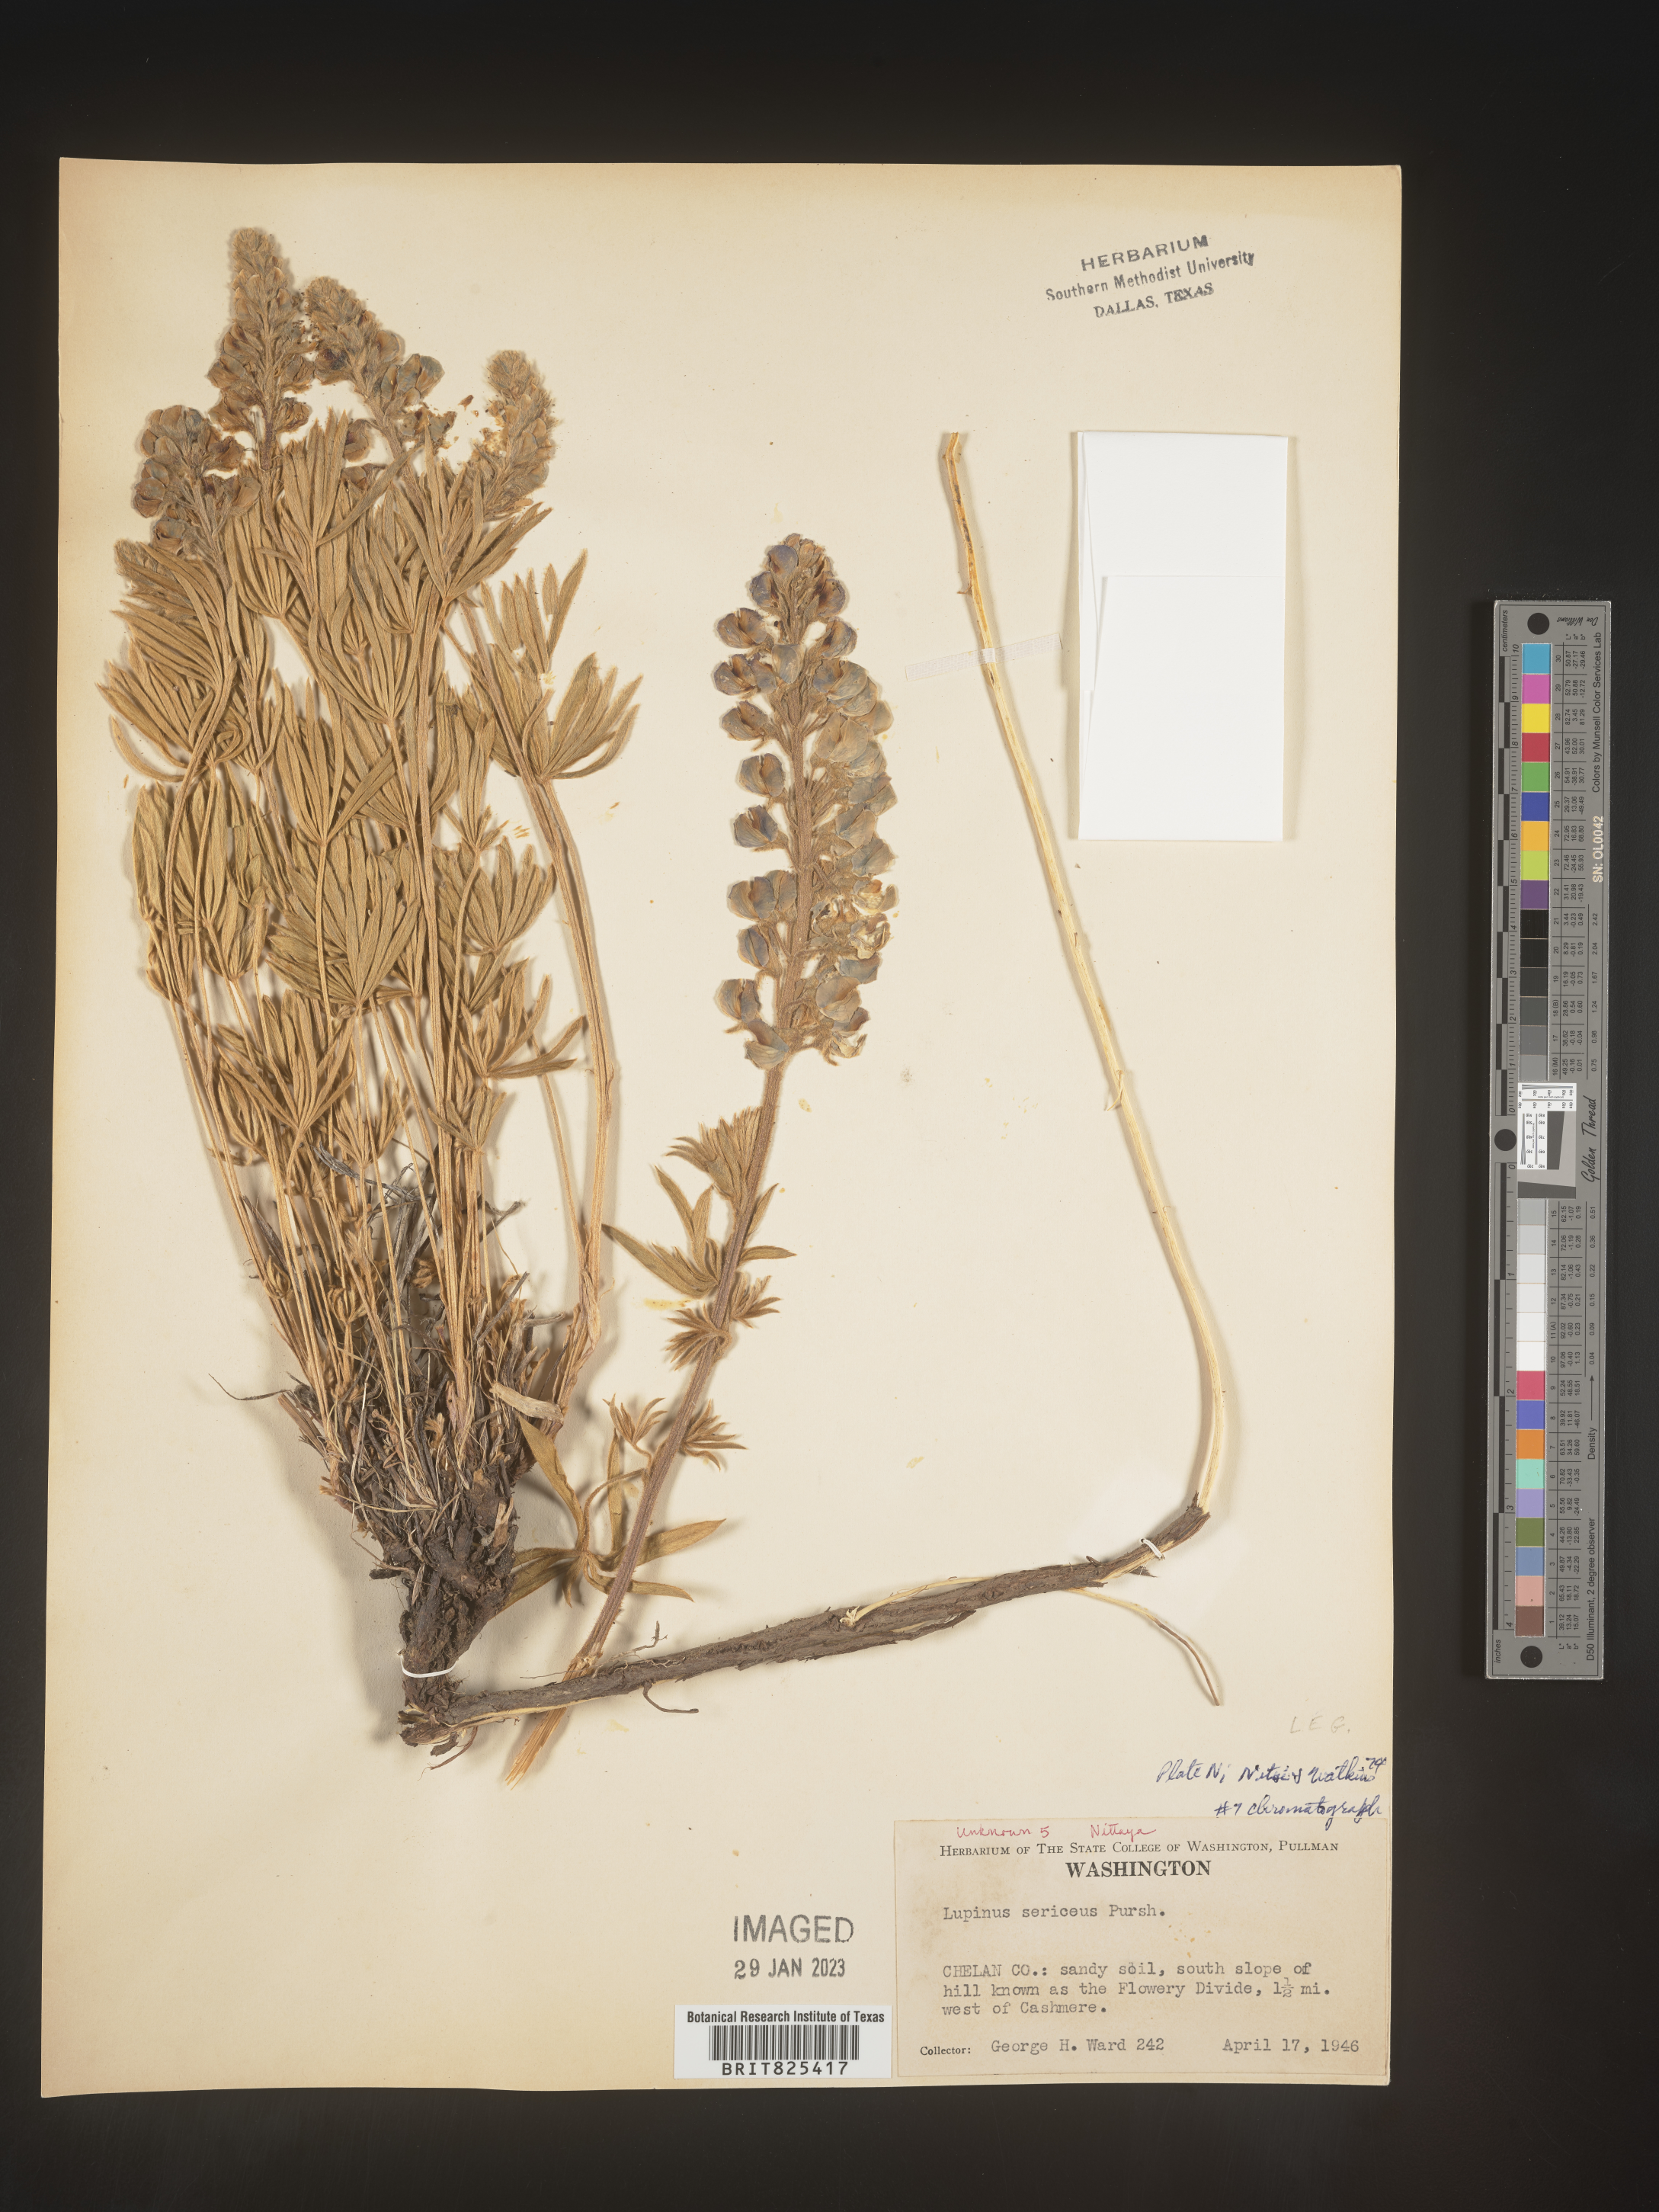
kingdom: Plantae
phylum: Tracheophyta
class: Magnoliopsida
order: Fabales
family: Fabaceae
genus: Lupinus
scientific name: Lupinus sericeus
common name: Silky lupine
